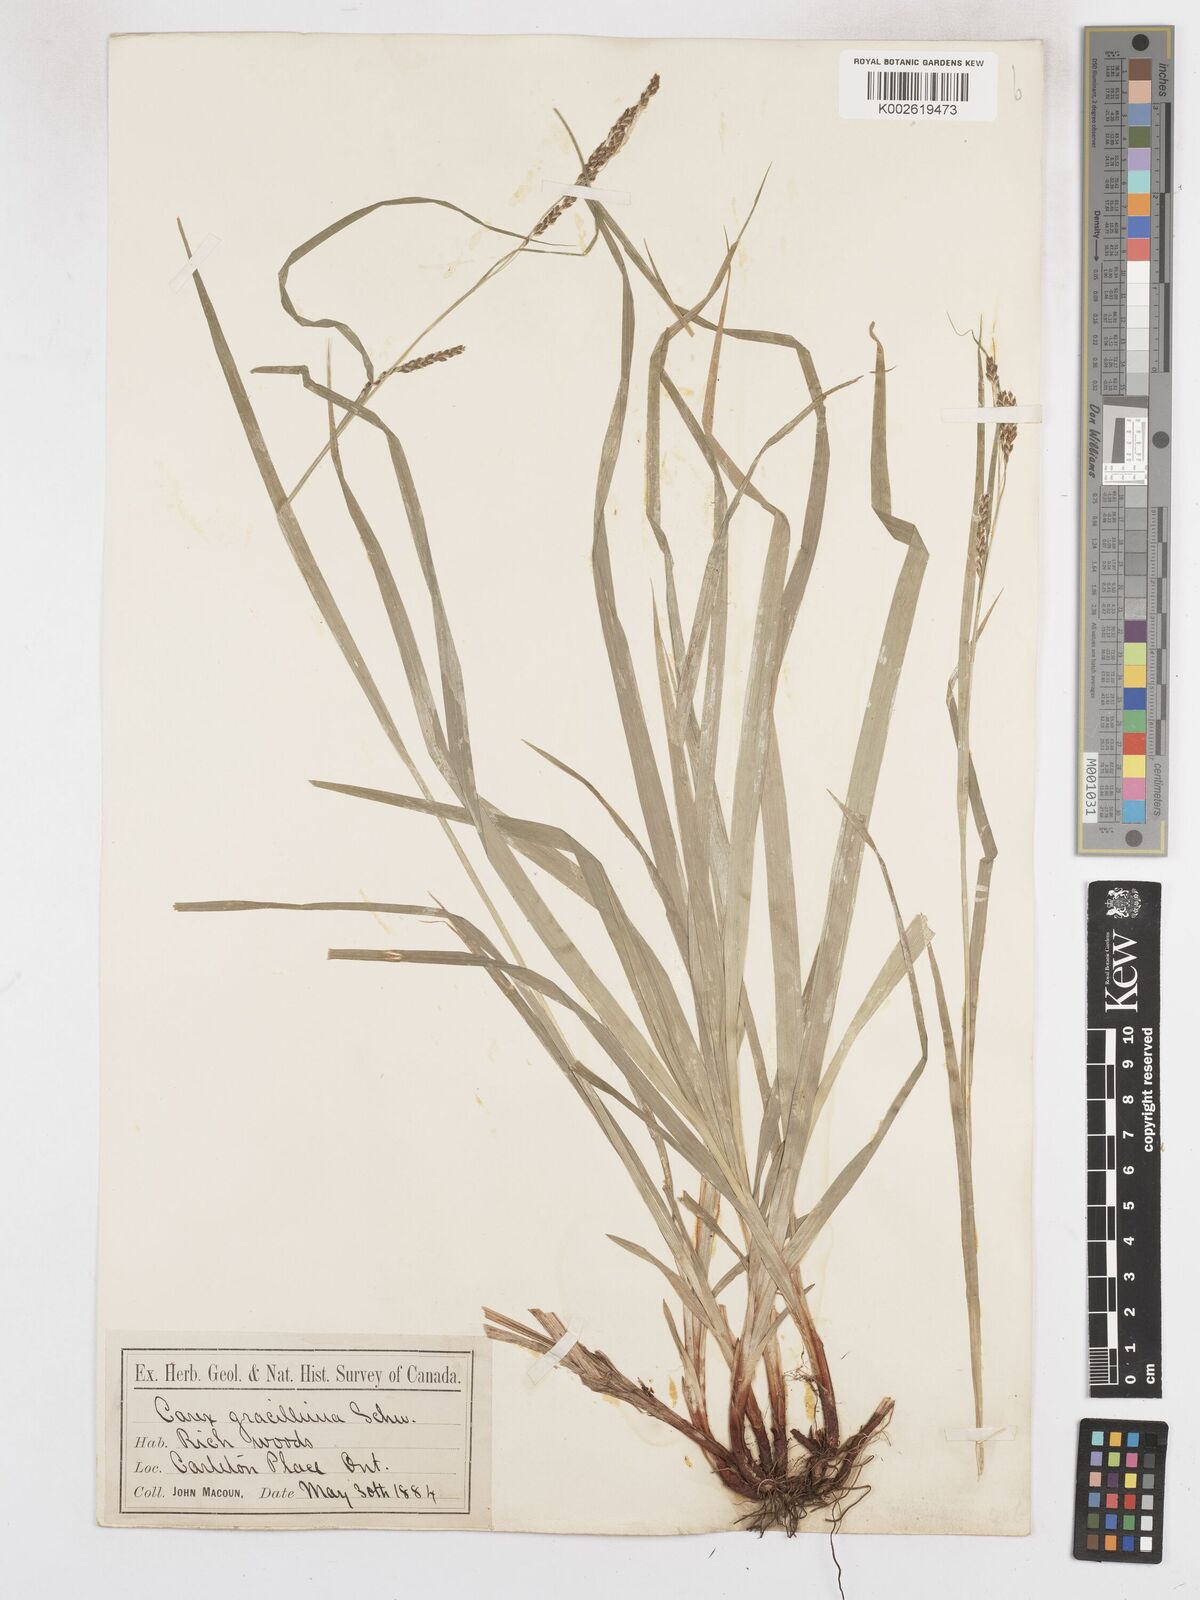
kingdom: Plantae
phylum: Tracheophyta
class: Liliopsida
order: Poales
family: Cyperaceae
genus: Carex
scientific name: Carex gracillima
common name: Graceful sedge
